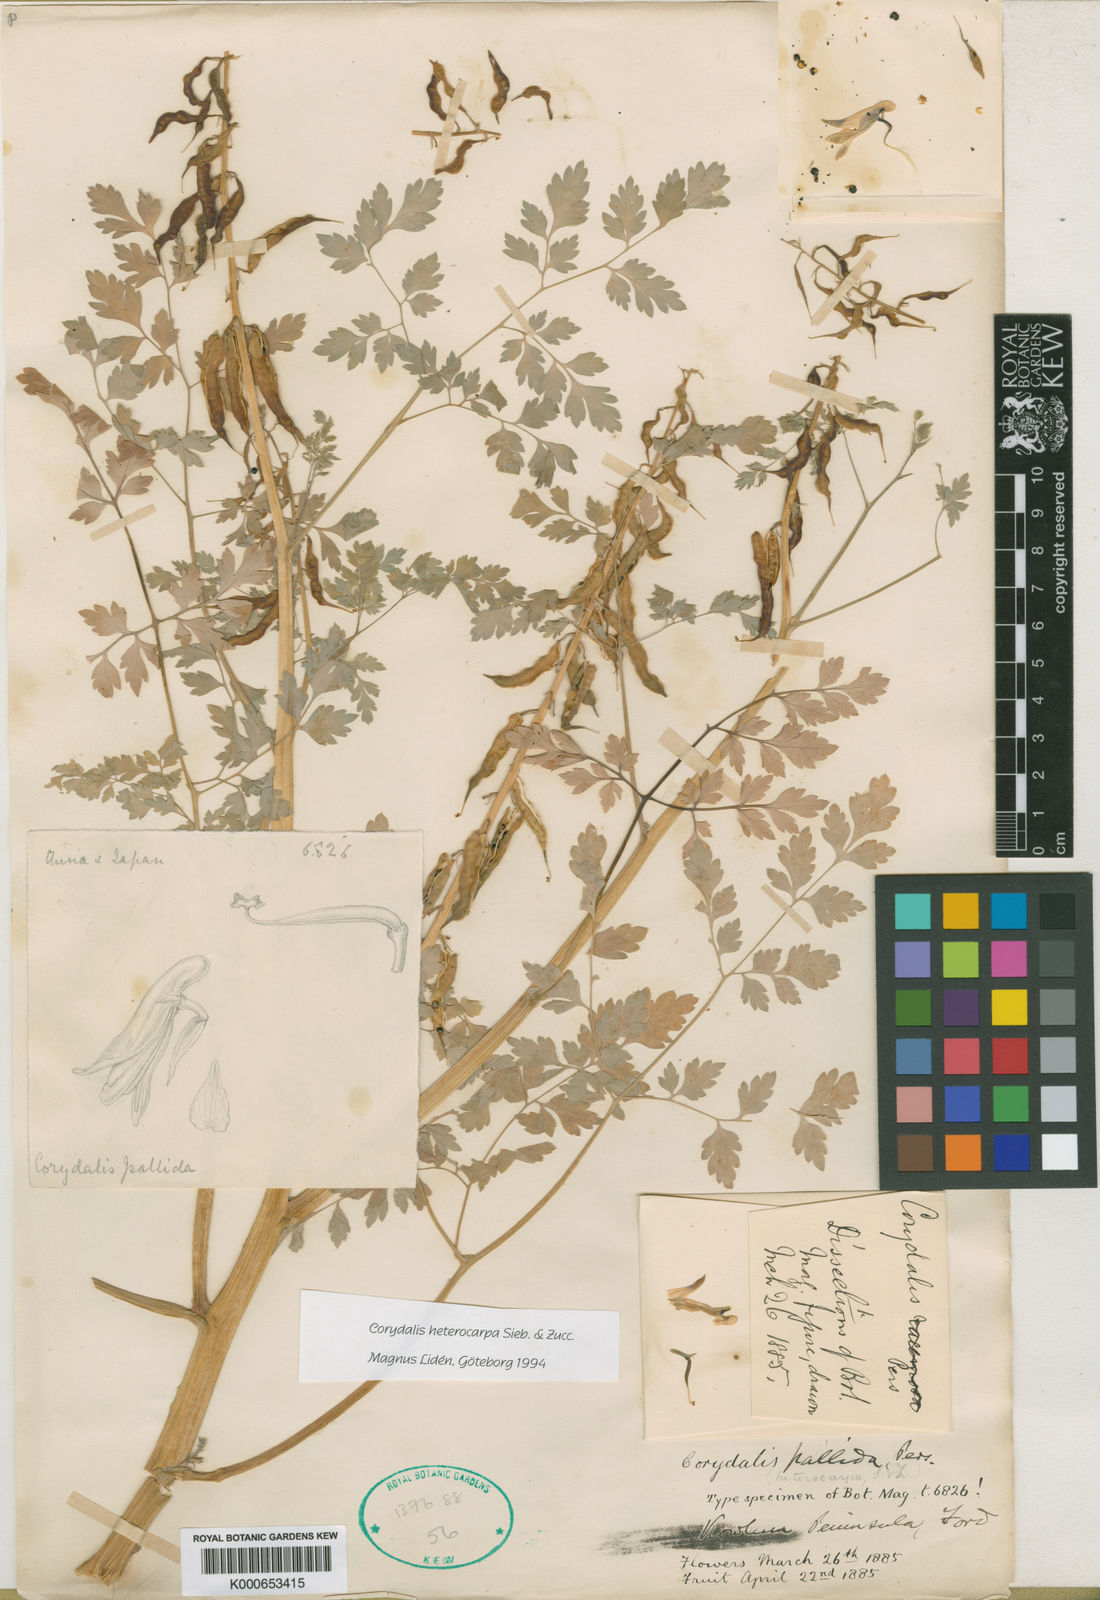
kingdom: Plantae
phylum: Tracheophyta
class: Magnoliopsida
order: Ranunculales
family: Papaveraceae
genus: Corydalis
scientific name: Corydalis pallida
